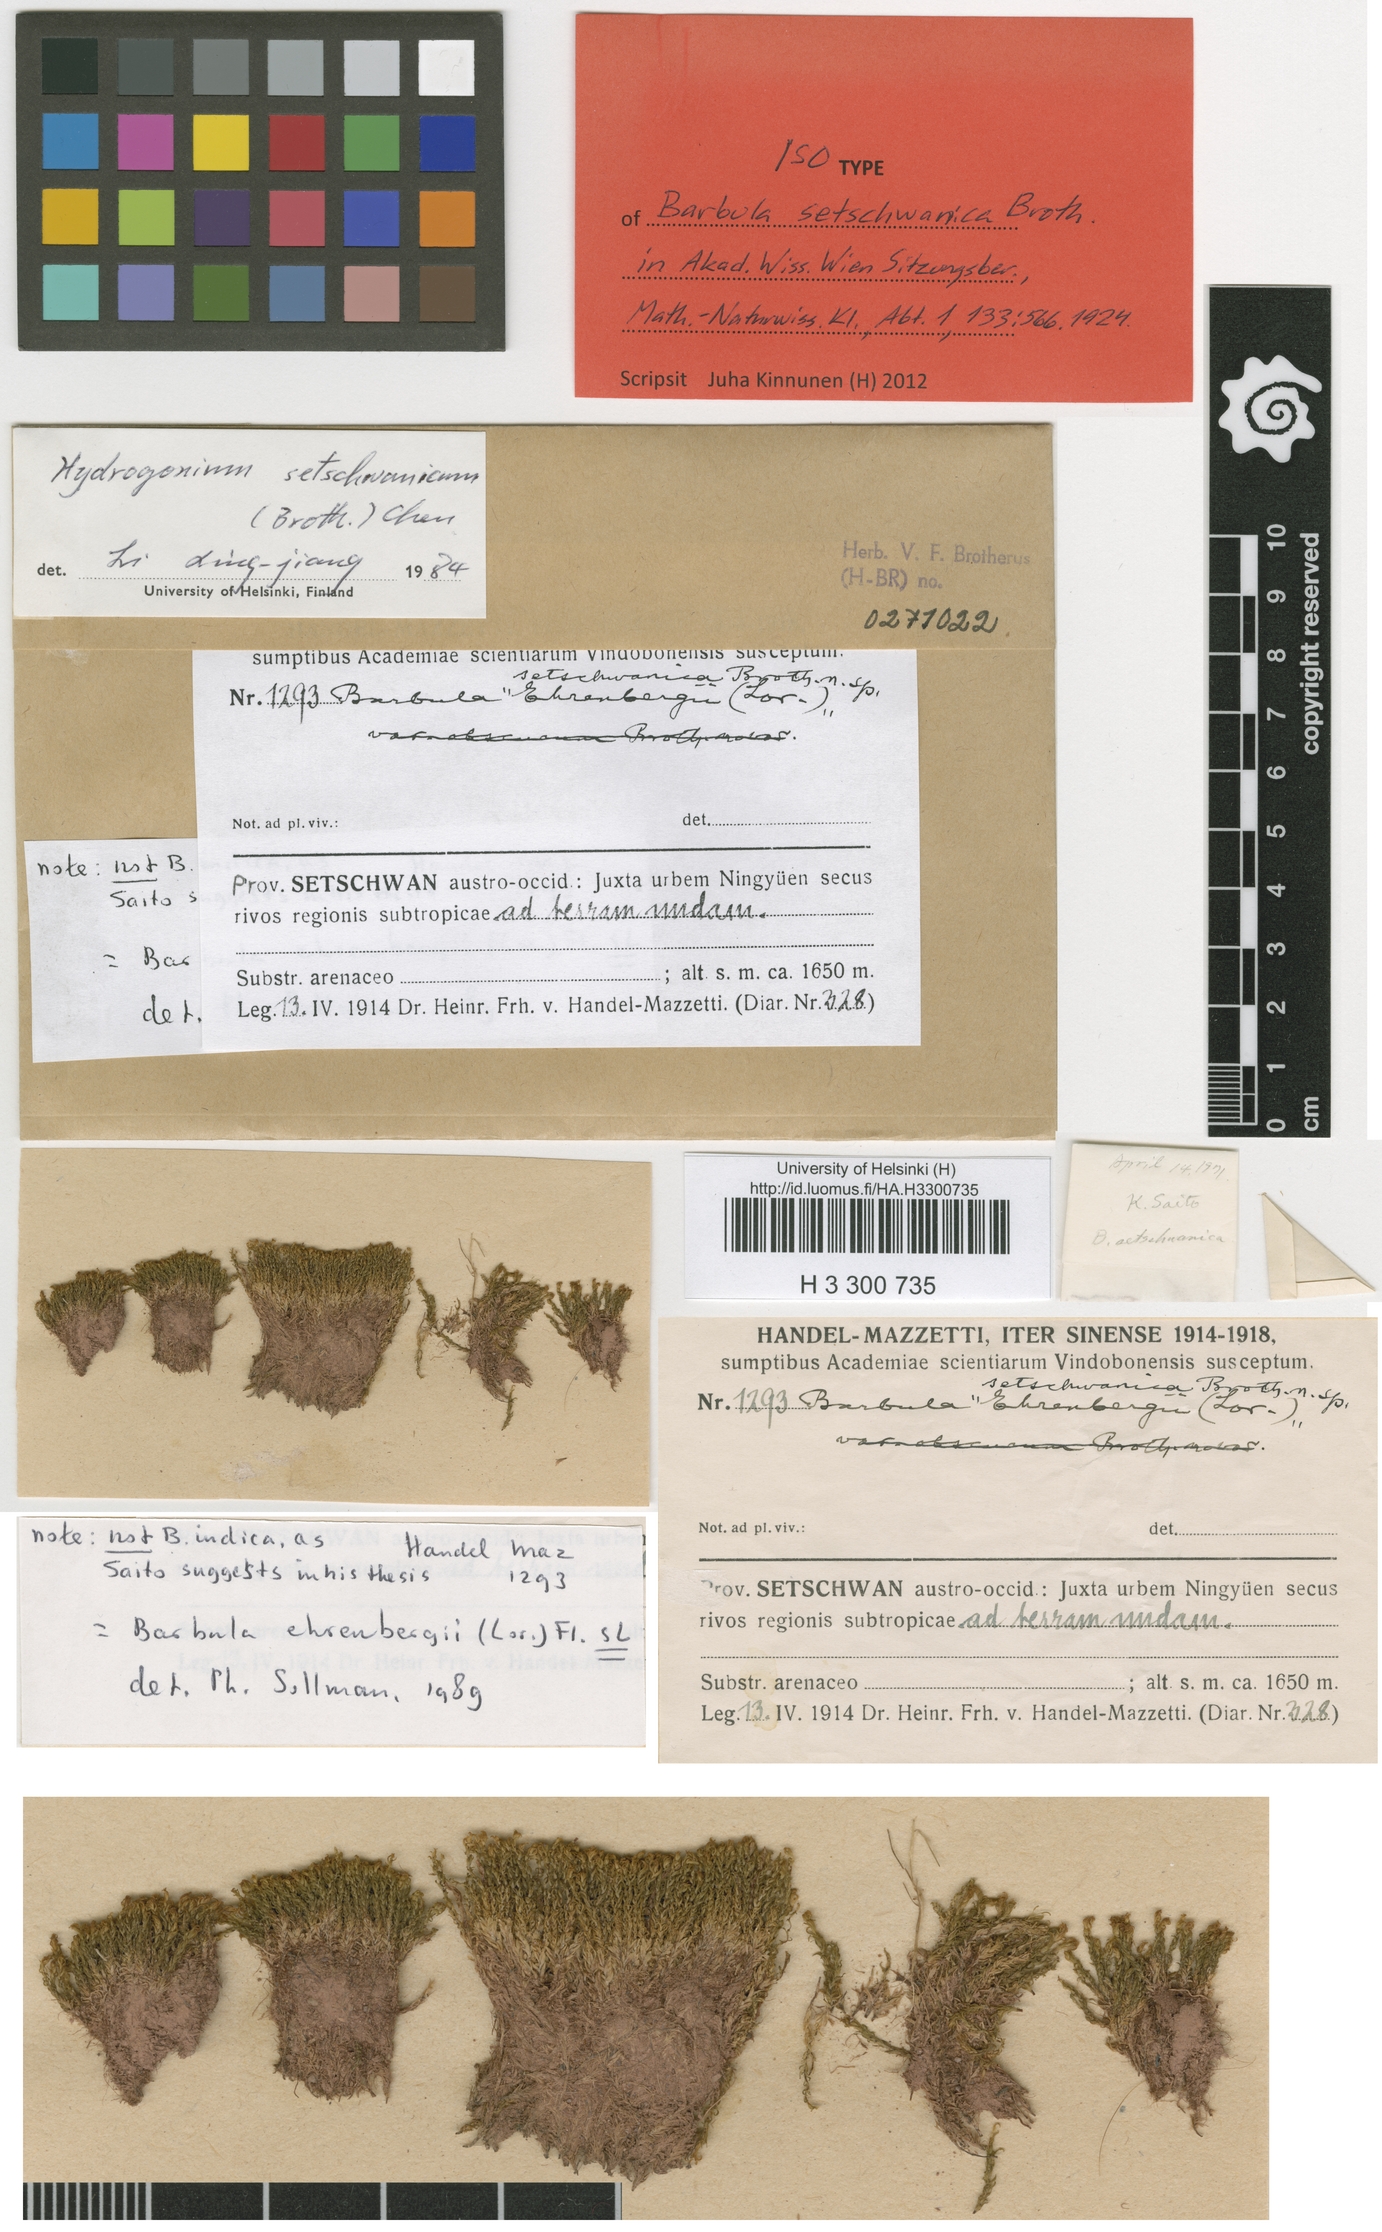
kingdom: Plantae
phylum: Bryophyta
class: Bryopsida
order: Pottiales
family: Pottiaceae
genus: Hydrogonium
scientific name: Hydrogonium orientale
